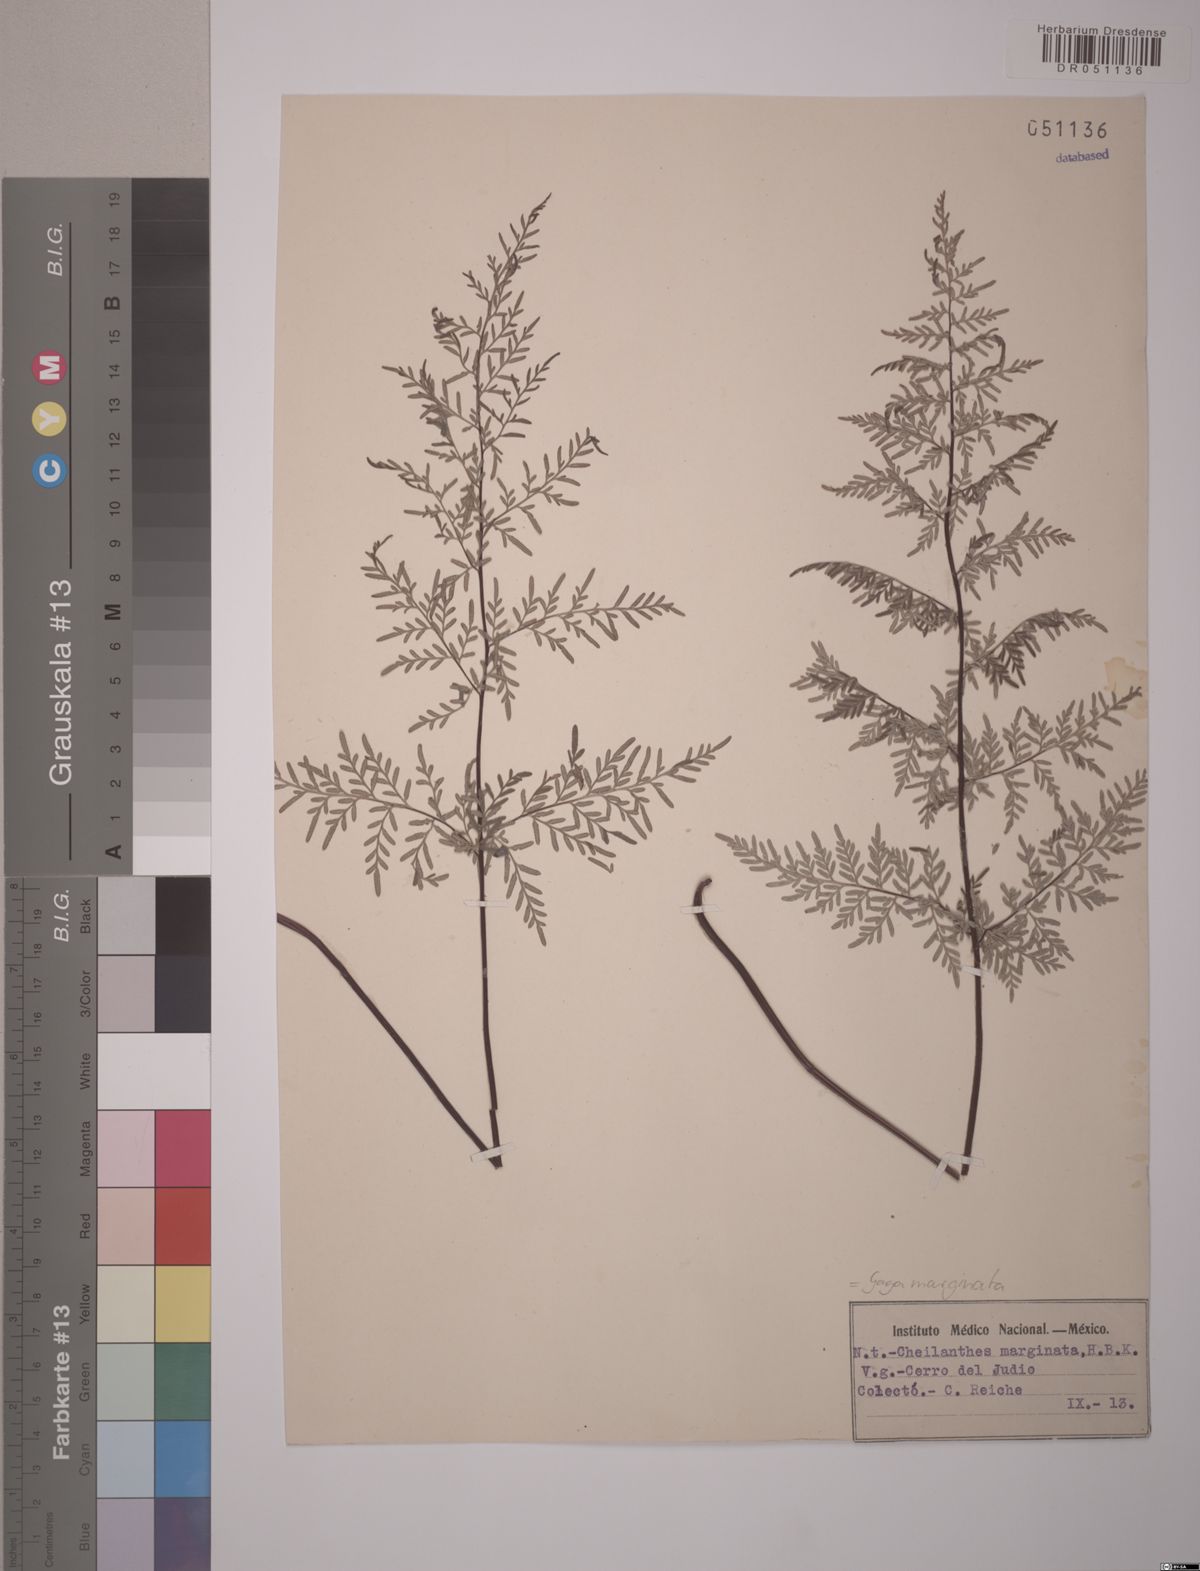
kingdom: Plantae
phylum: Tracheophyta
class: Polypodiopsida
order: Polypodiales
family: Pteridaceae
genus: Gaga
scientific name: Gaga marginata
